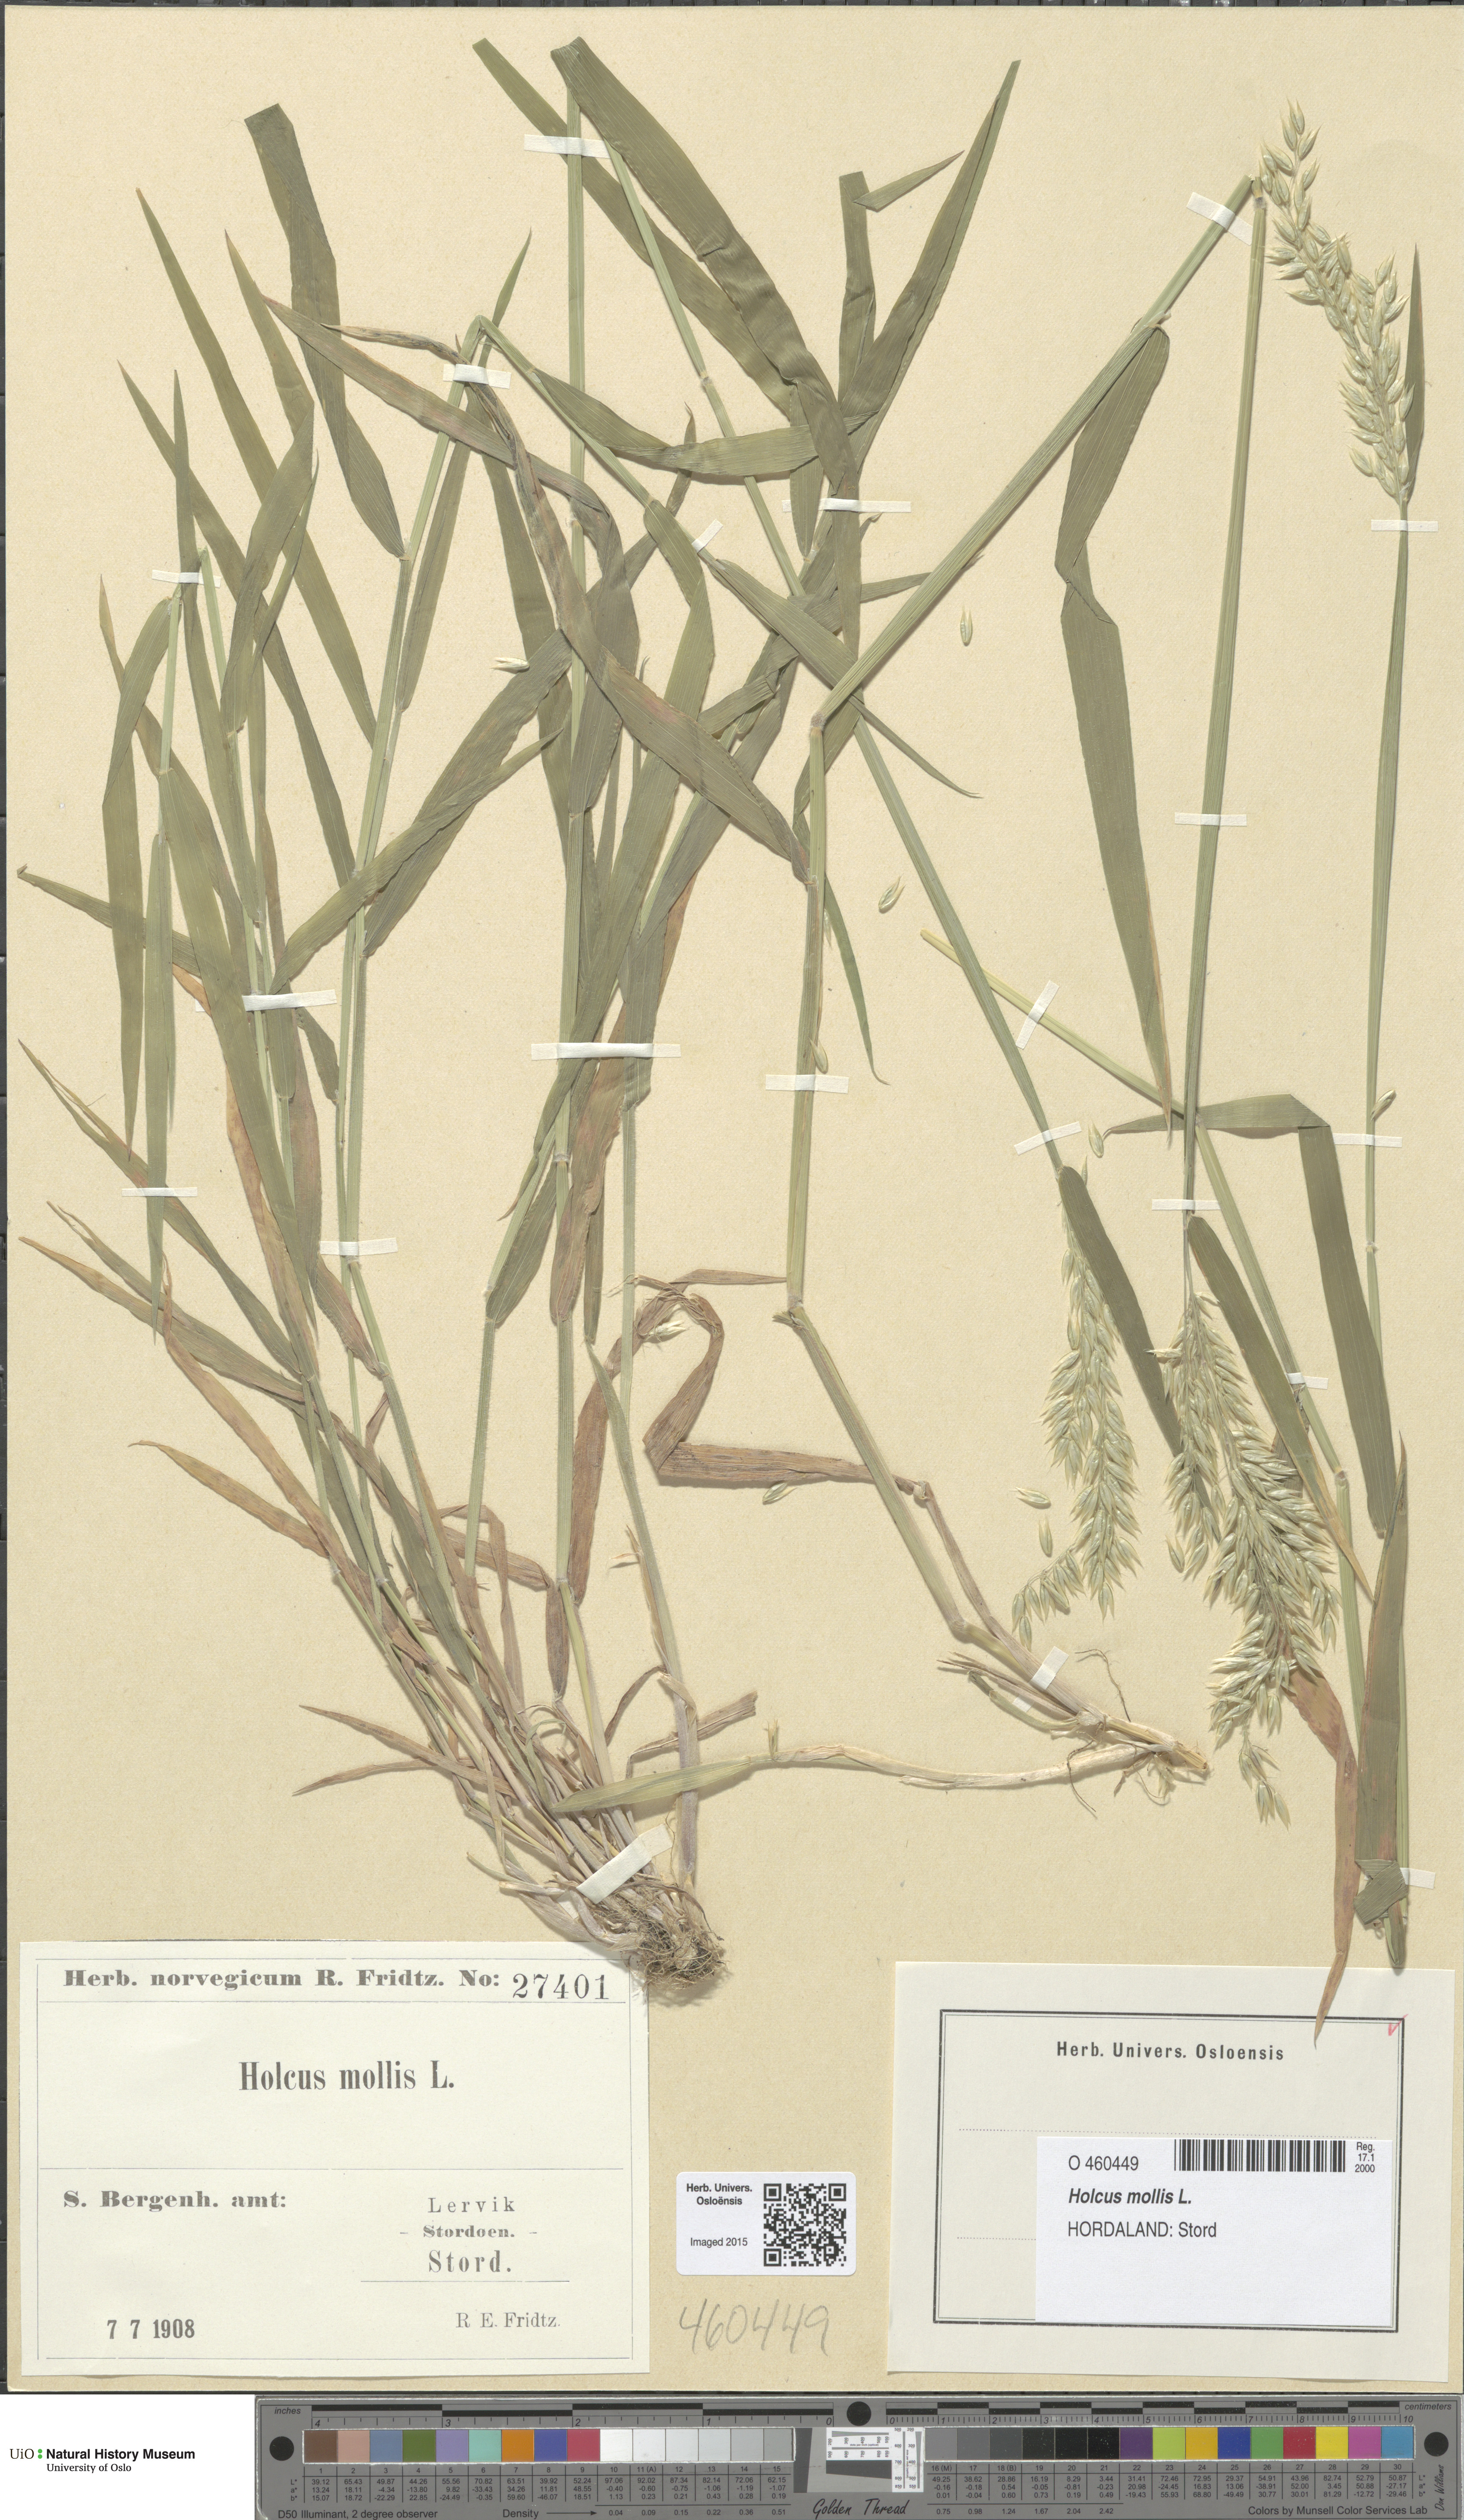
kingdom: Plantae
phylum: Tracheophyta
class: Liliopsida
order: Poales
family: Poaceae
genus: Holcus
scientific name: Holcus mollis
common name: Creeping velvetgrass
